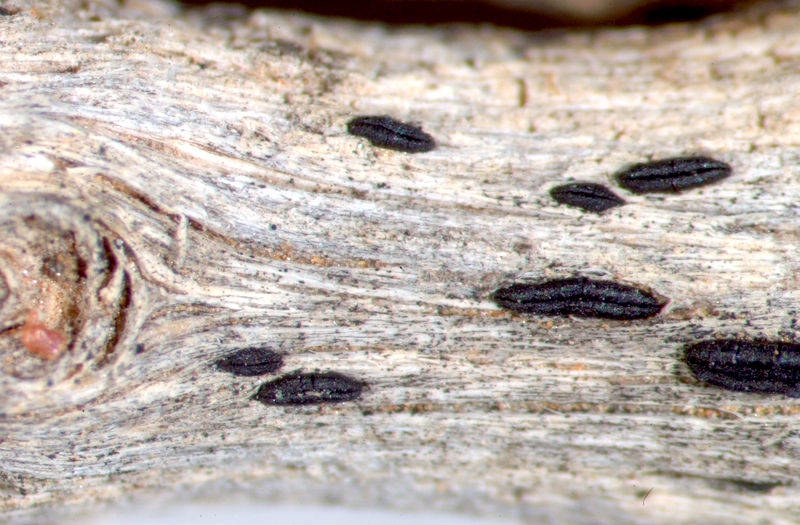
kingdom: Fungi
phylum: Ascomycota
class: Arthoniomycetes
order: Arthoniales
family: Opegraphaceae
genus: Opegrapha
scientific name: Opegrapha
